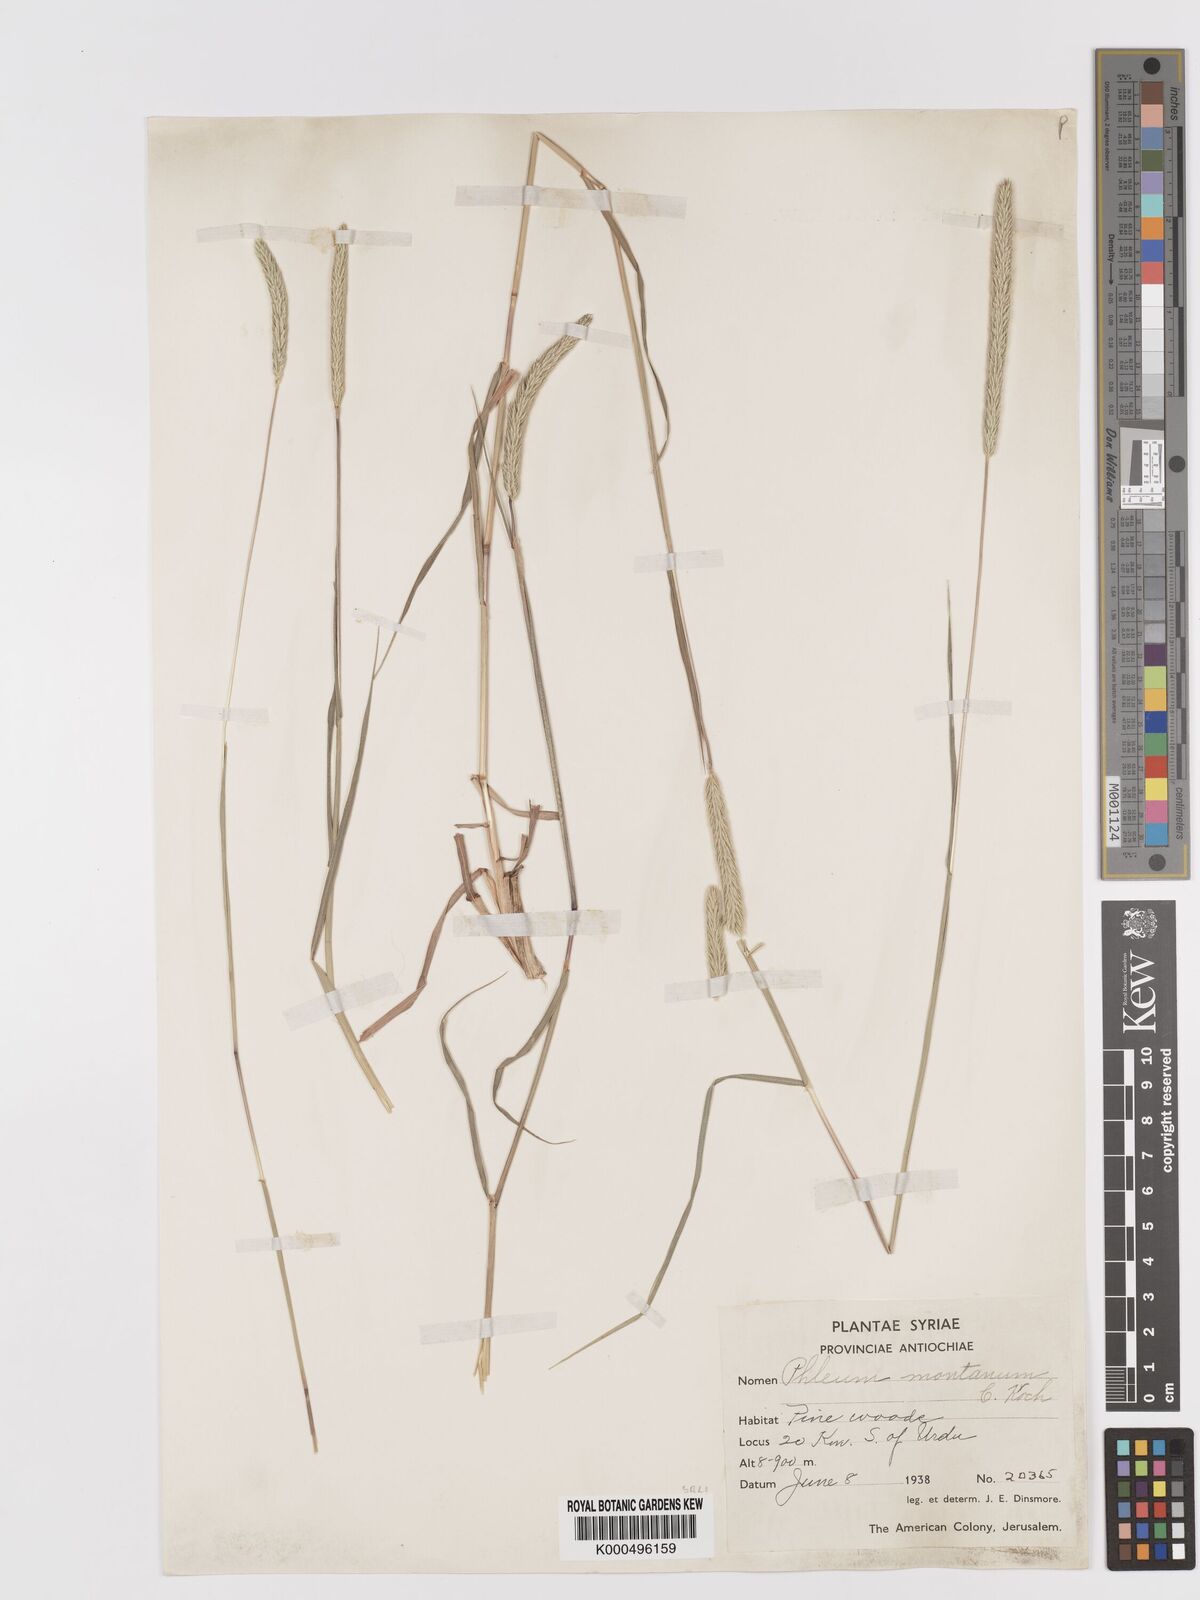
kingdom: Plantae
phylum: Tracheophyta
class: Liliopsida
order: Poales
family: Poaceae
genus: Phleum
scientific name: Phleum montanum
